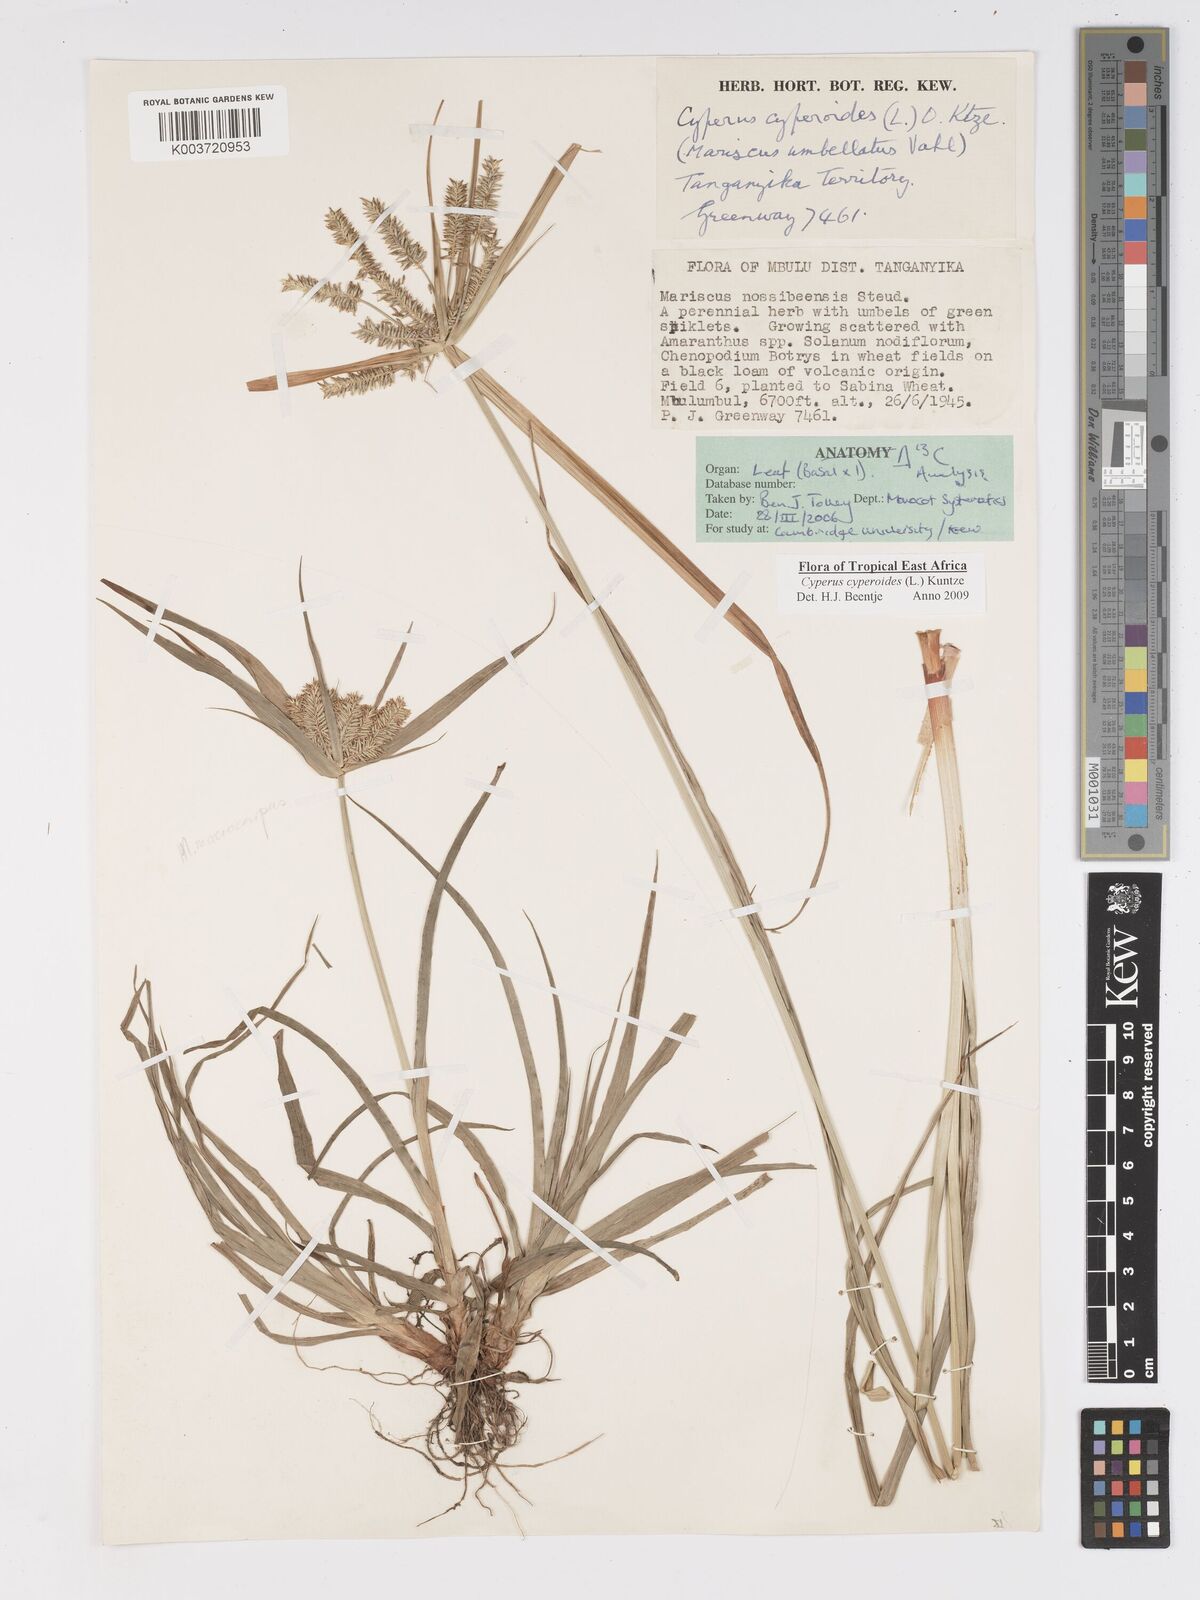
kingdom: Plantae
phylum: Tracheophyta
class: Liliopsida
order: Poales
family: Cyperaceae
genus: Cyperus
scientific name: Cyperus cyperoides
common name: Pacific island flat sedge
